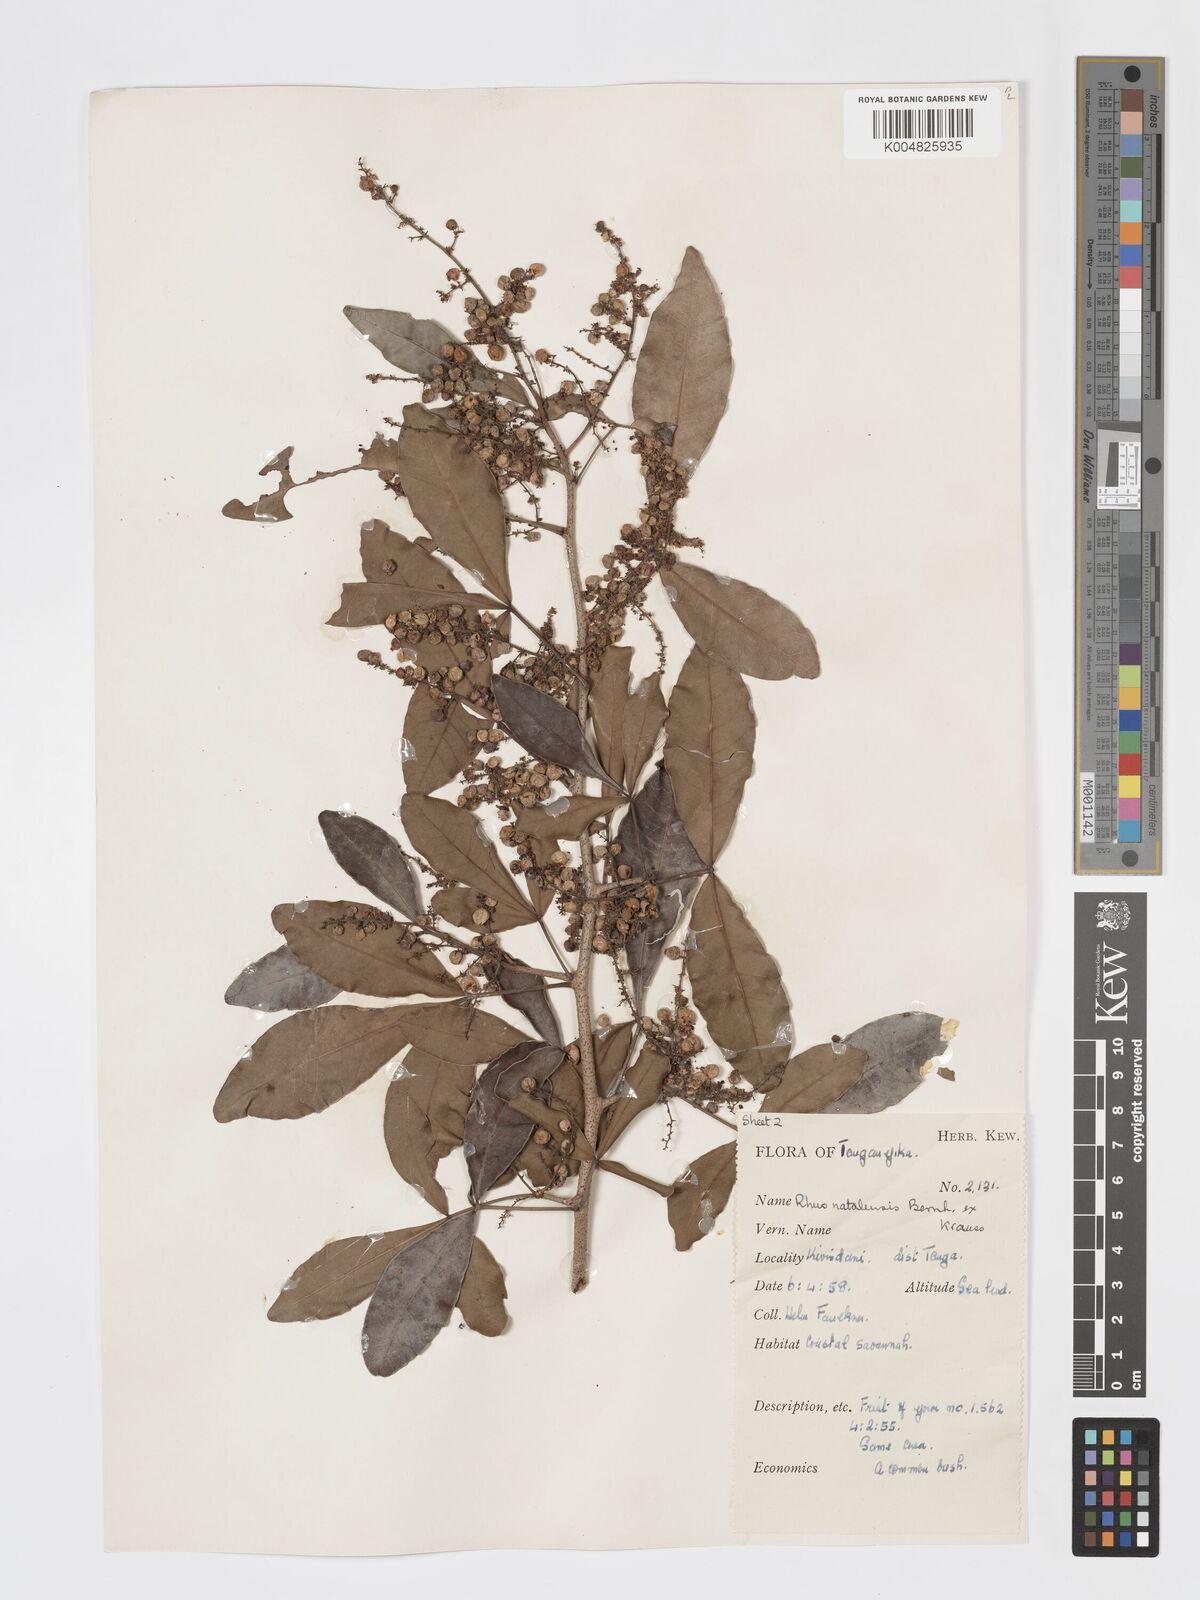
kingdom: Plantae
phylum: Tracheophyta
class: Magnoliopsida
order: Sapindales
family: Anacardiaceae
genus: Searsia
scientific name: Searsia natalensis
